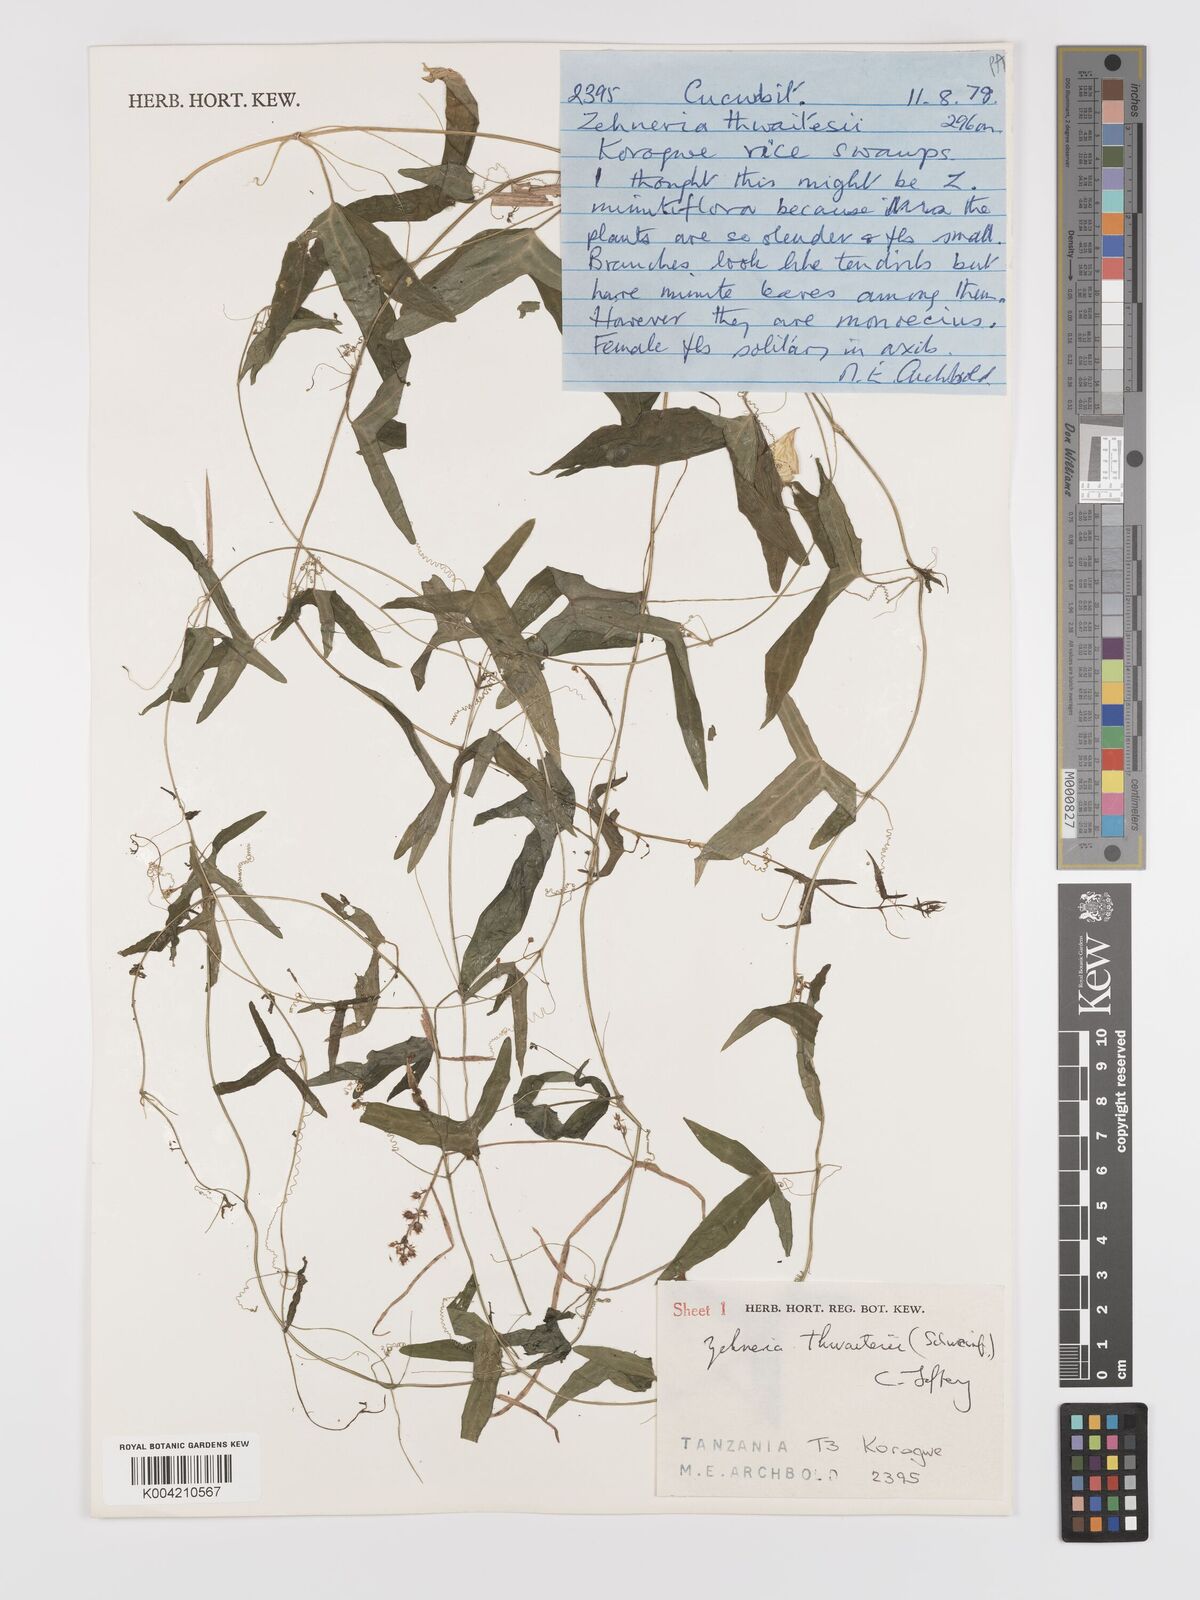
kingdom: Plantae
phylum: Tracheophyta
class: Magnoliopsida
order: Cucurbitales
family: Cucurbitaceae
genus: Zehneria
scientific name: Zehneria thwaitesii
